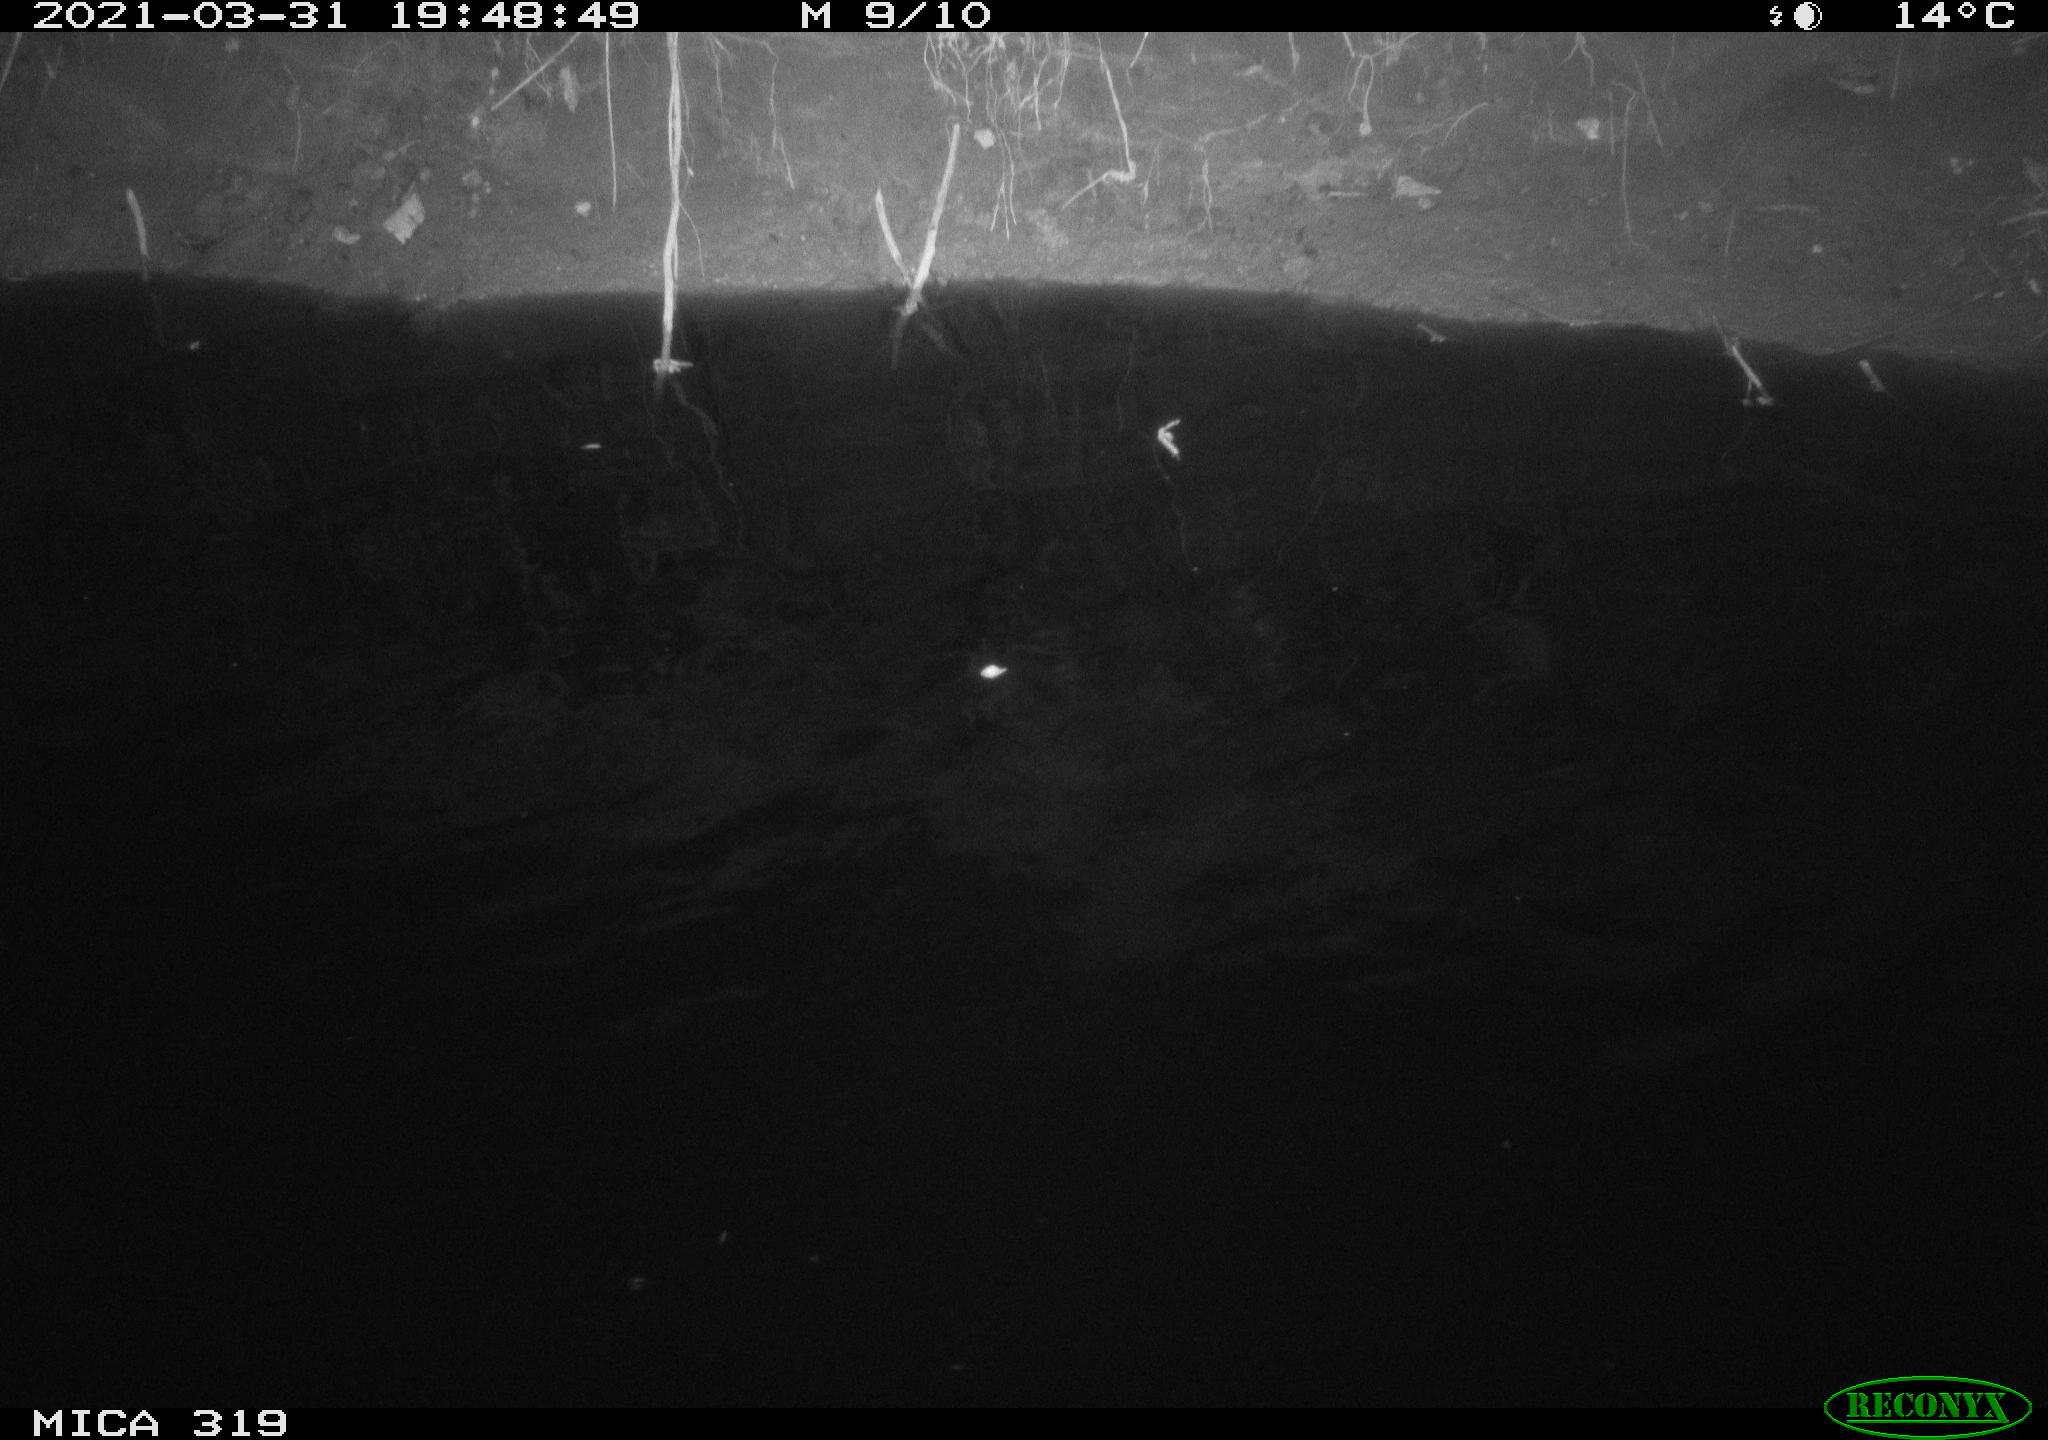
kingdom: Animalia
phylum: Chordata
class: Aves
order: Anseriformes
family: Anatidae
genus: Anas
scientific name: Anas platyrhynchos
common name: Mallard
